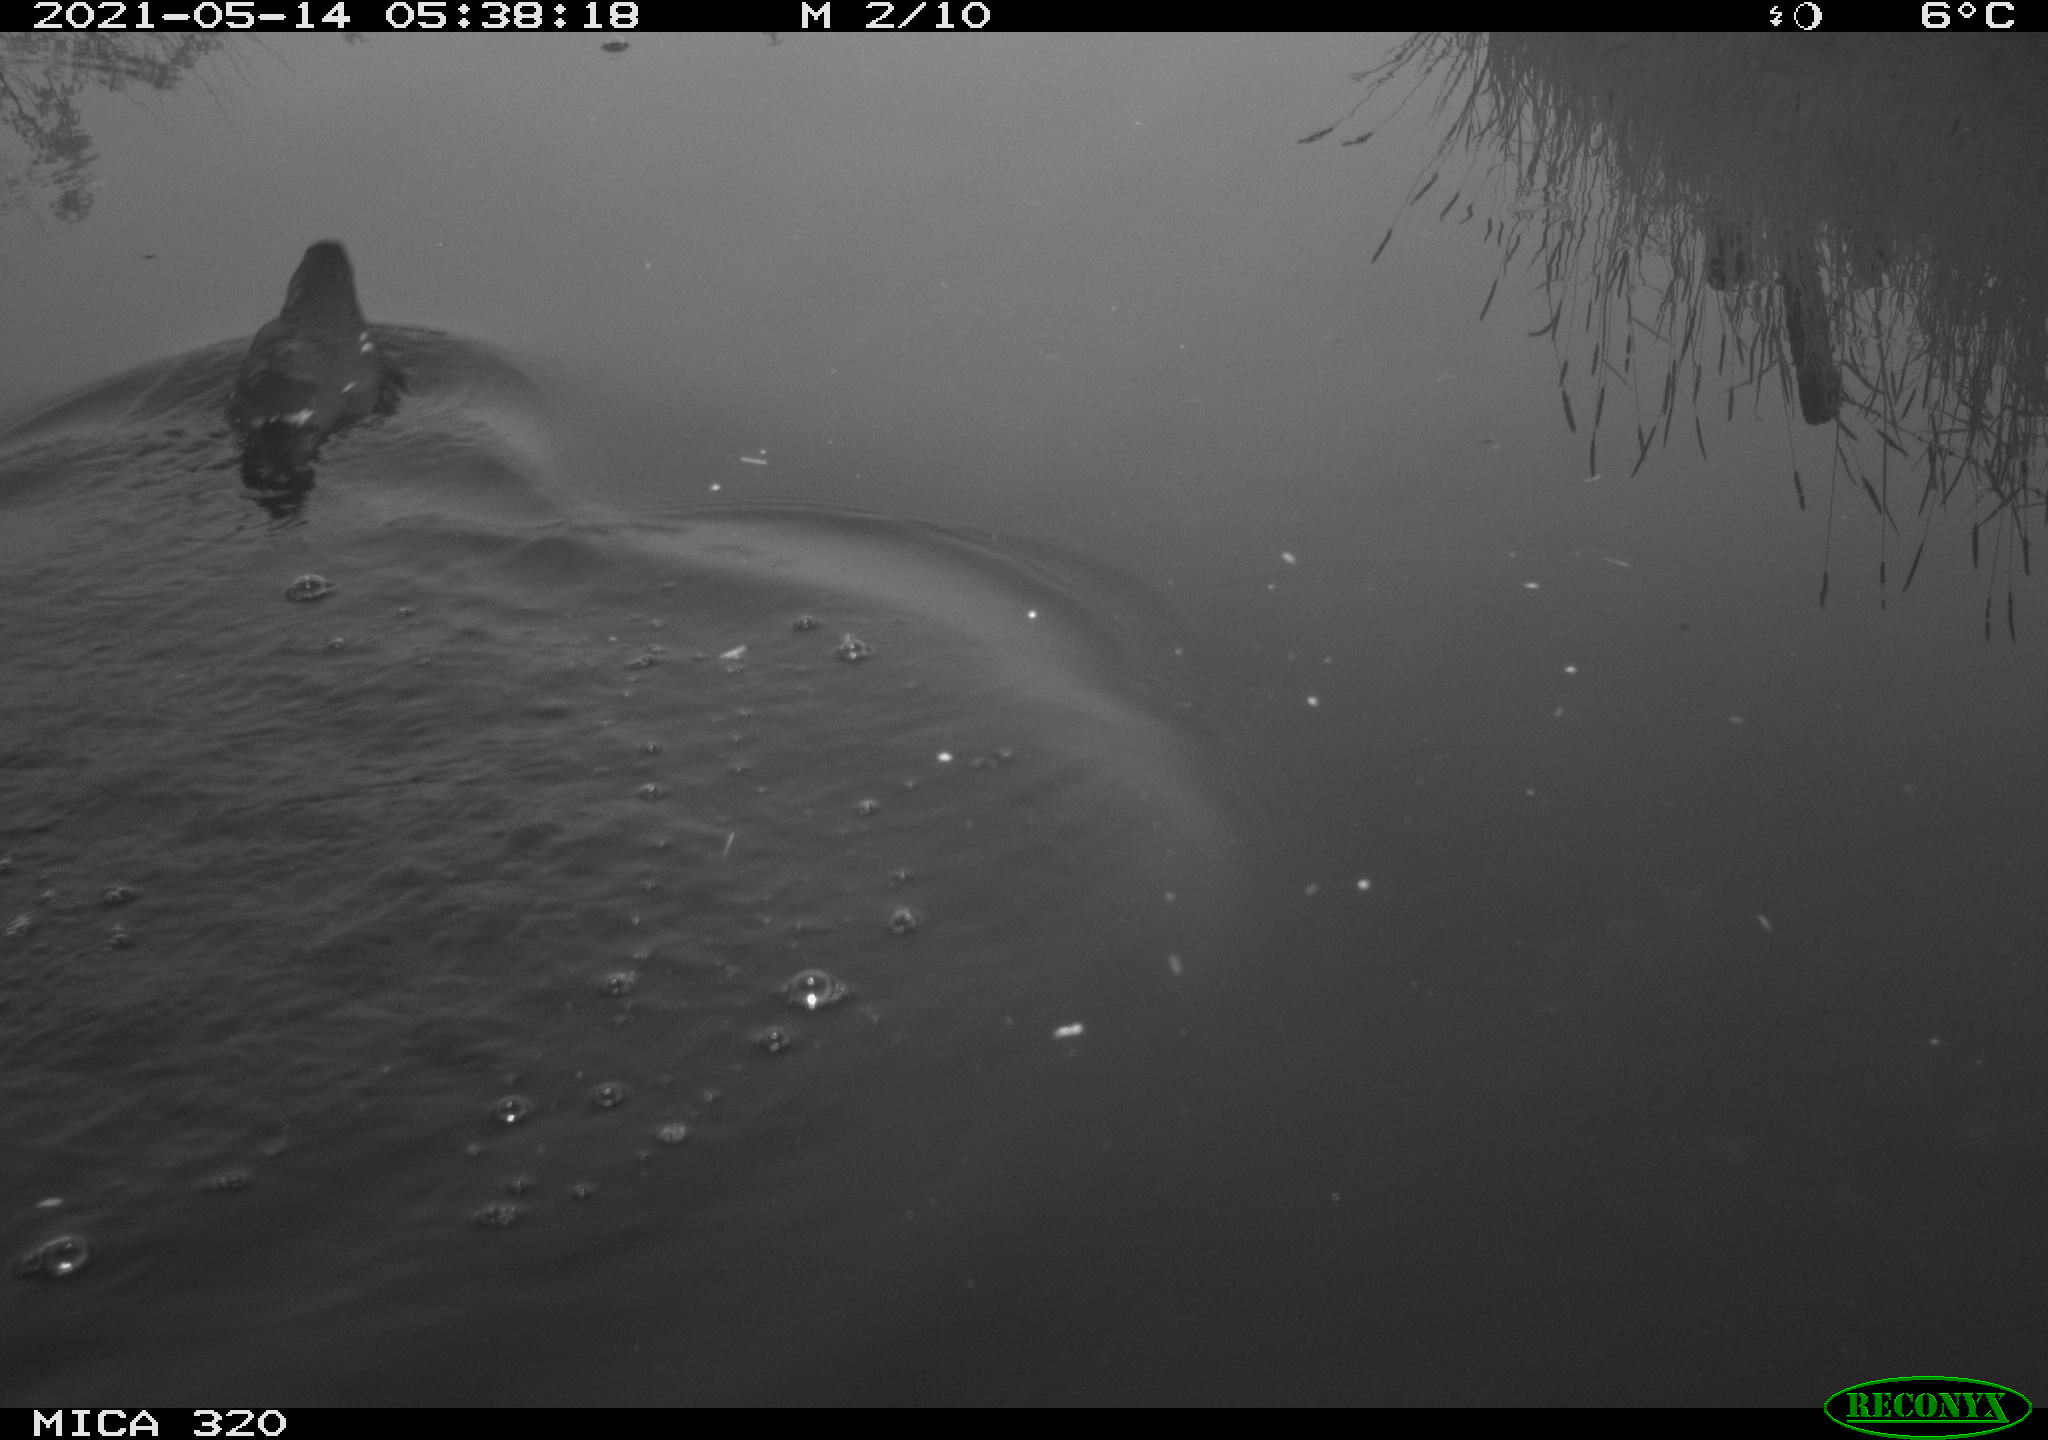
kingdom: Animalia
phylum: Chordata
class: Aves
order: Gruiformes
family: Rallidae
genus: Gallinula
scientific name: Gallinula chloropus
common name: Common moorhen
